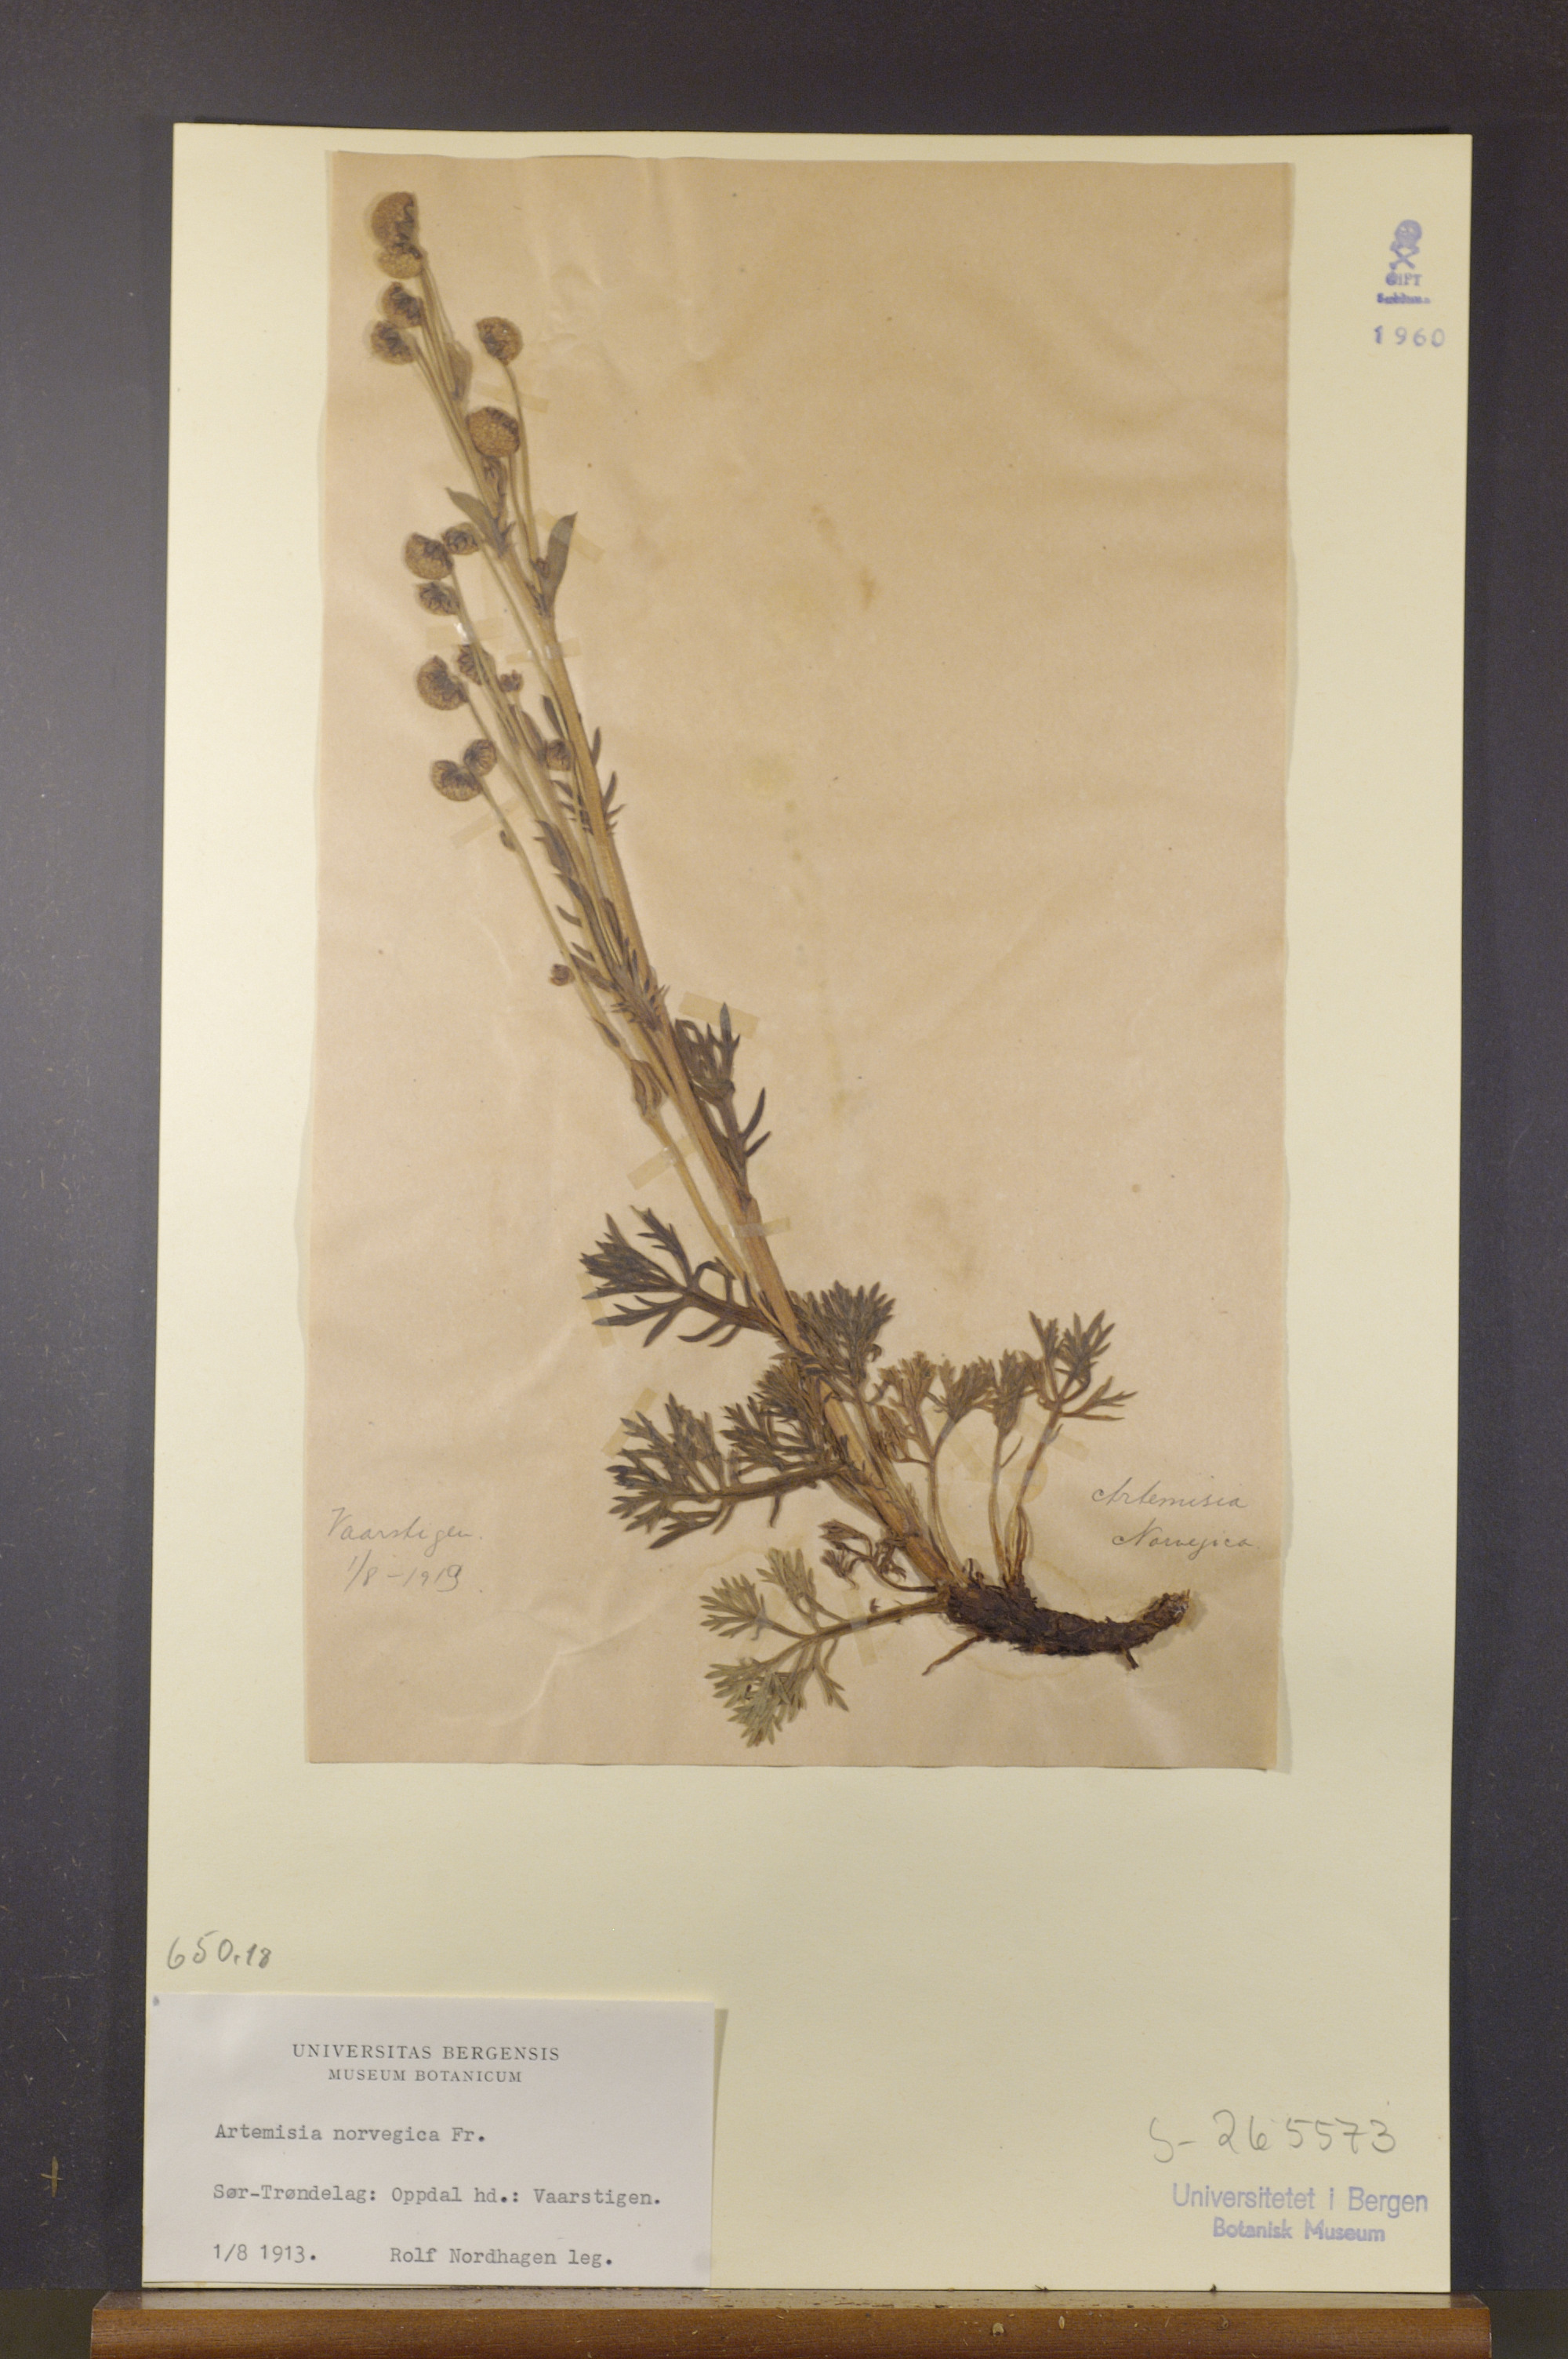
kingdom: Plantae
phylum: Tracheophyta
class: Magnoliopsida
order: Asterales
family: Asteraceae
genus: Artemisia
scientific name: Artemisia norvegica
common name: Norwegian mugwort
